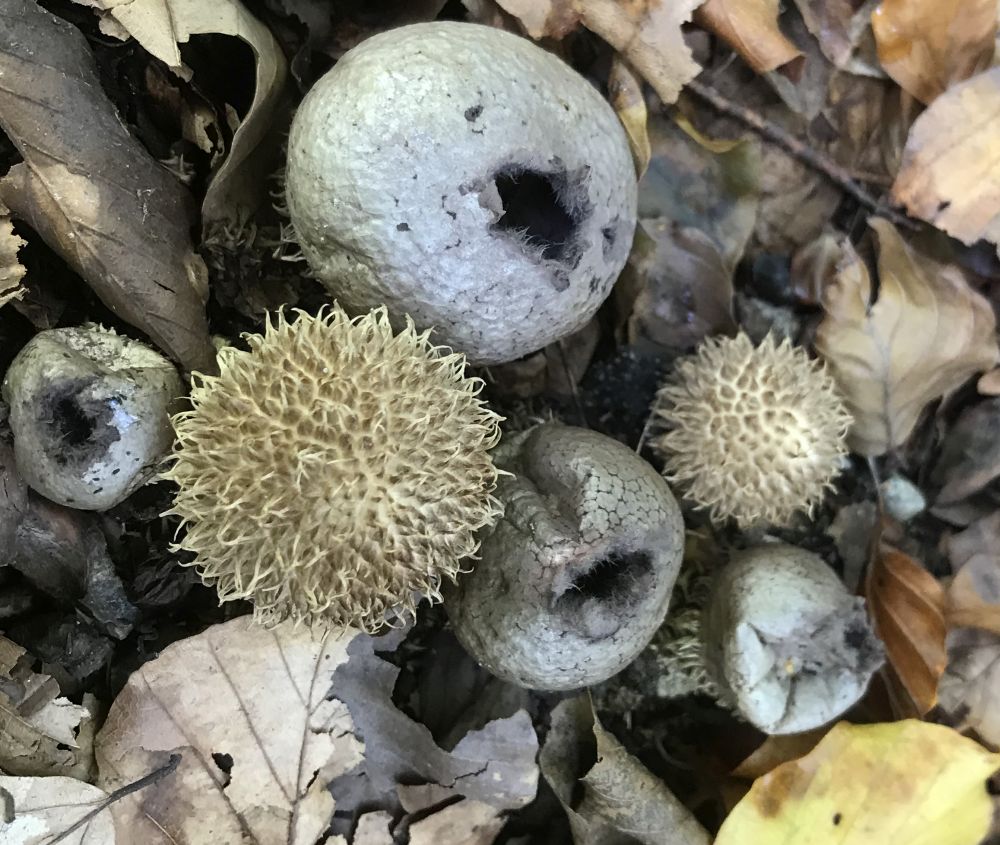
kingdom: Fungi
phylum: Basidiomycota
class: Agaricomycetes
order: Agaricales
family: Lycoperdaceae
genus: Lycoperdon
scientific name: Lycoperdon echinatum
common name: pindsvine-støvbold
